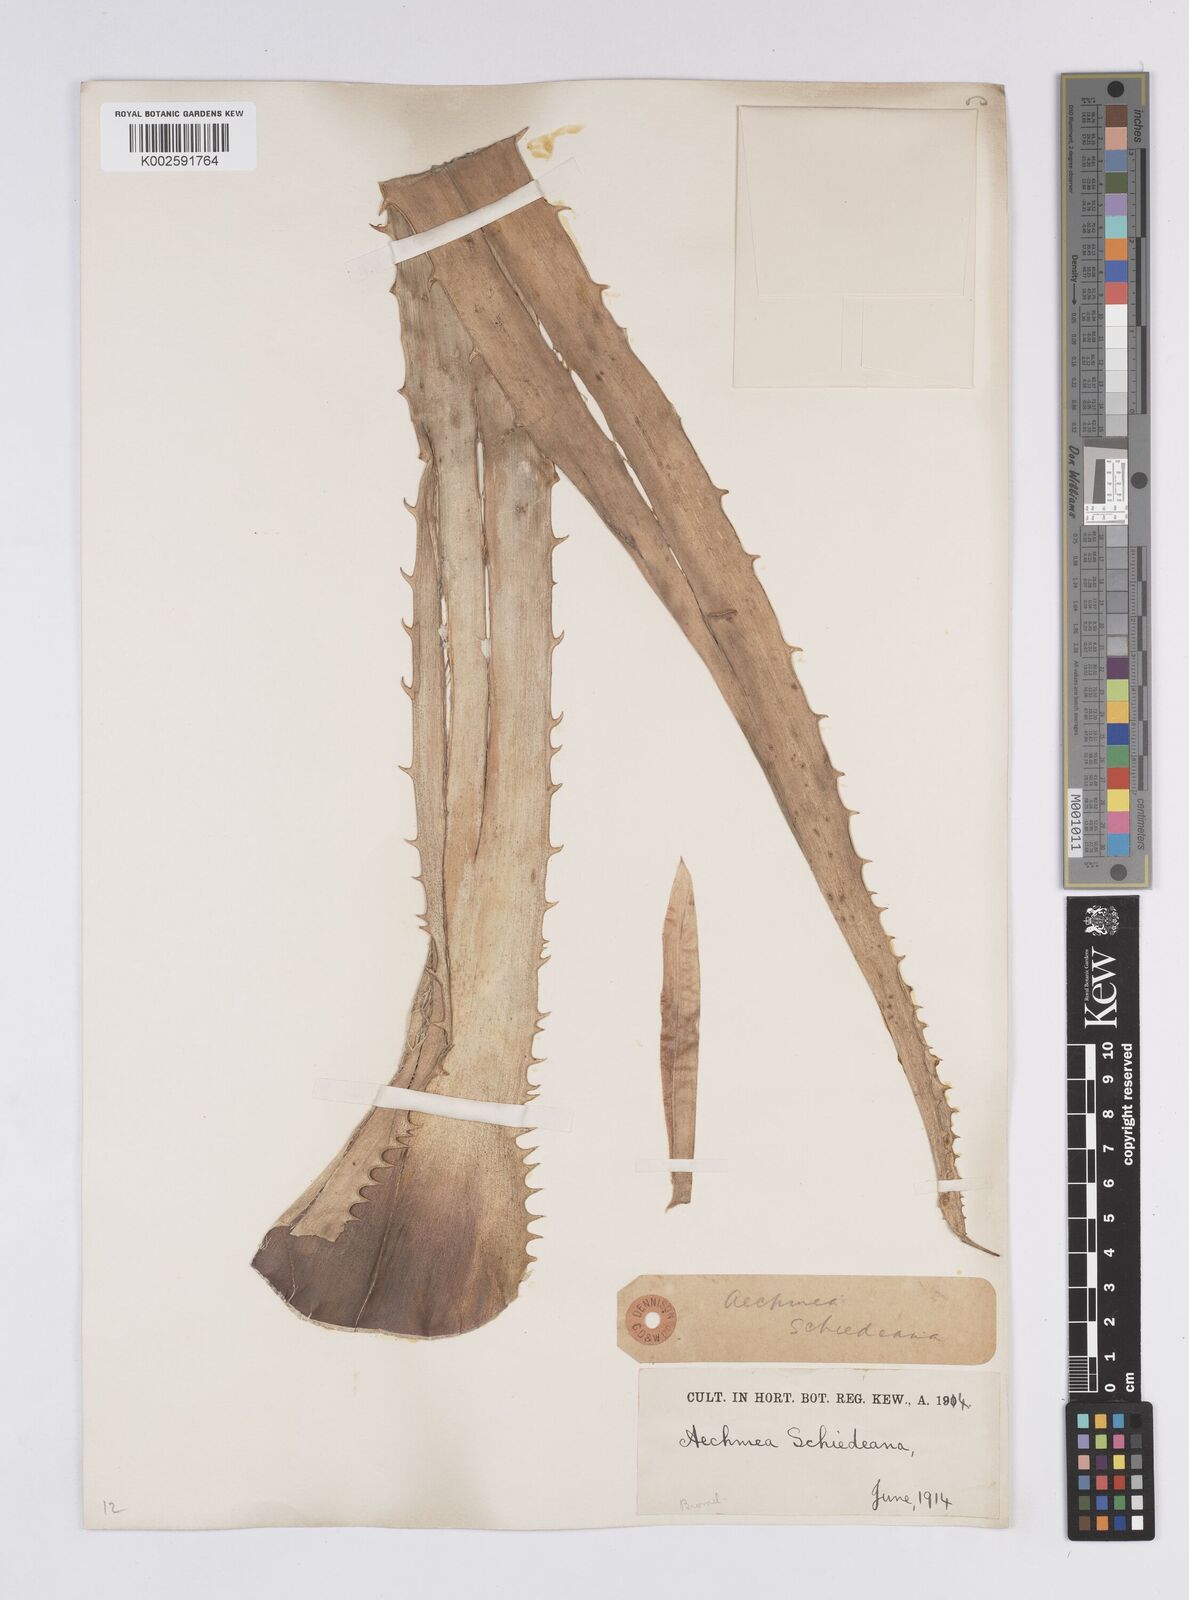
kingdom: Plantae
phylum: Tracheophyta
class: Liliopsida
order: Poales
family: Bromeliaceae
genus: Aechmea
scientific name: Aechmea bracteata
